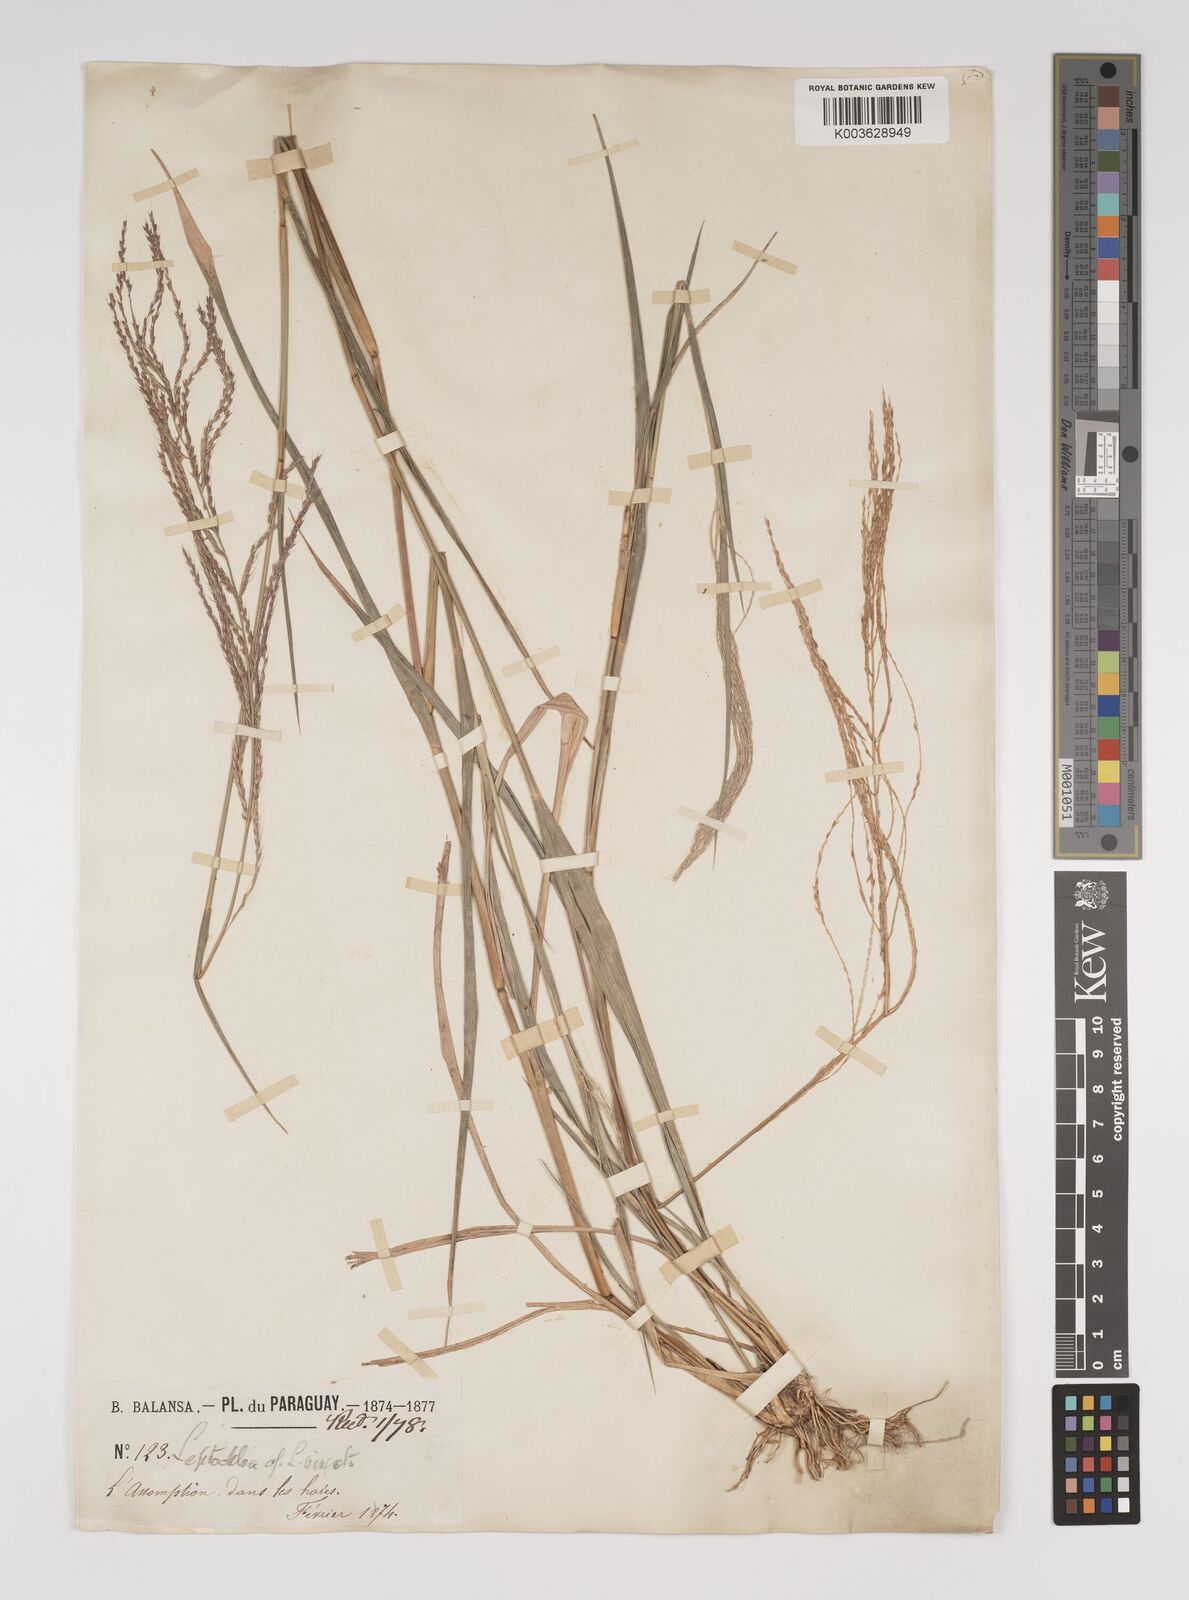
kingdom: Plantae
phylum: Tracheophyta
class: Liliopsida
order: Poales
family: Poaceae
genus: Leptochloa
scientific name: Leptochloa virgata
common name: Tropical sprangletop
